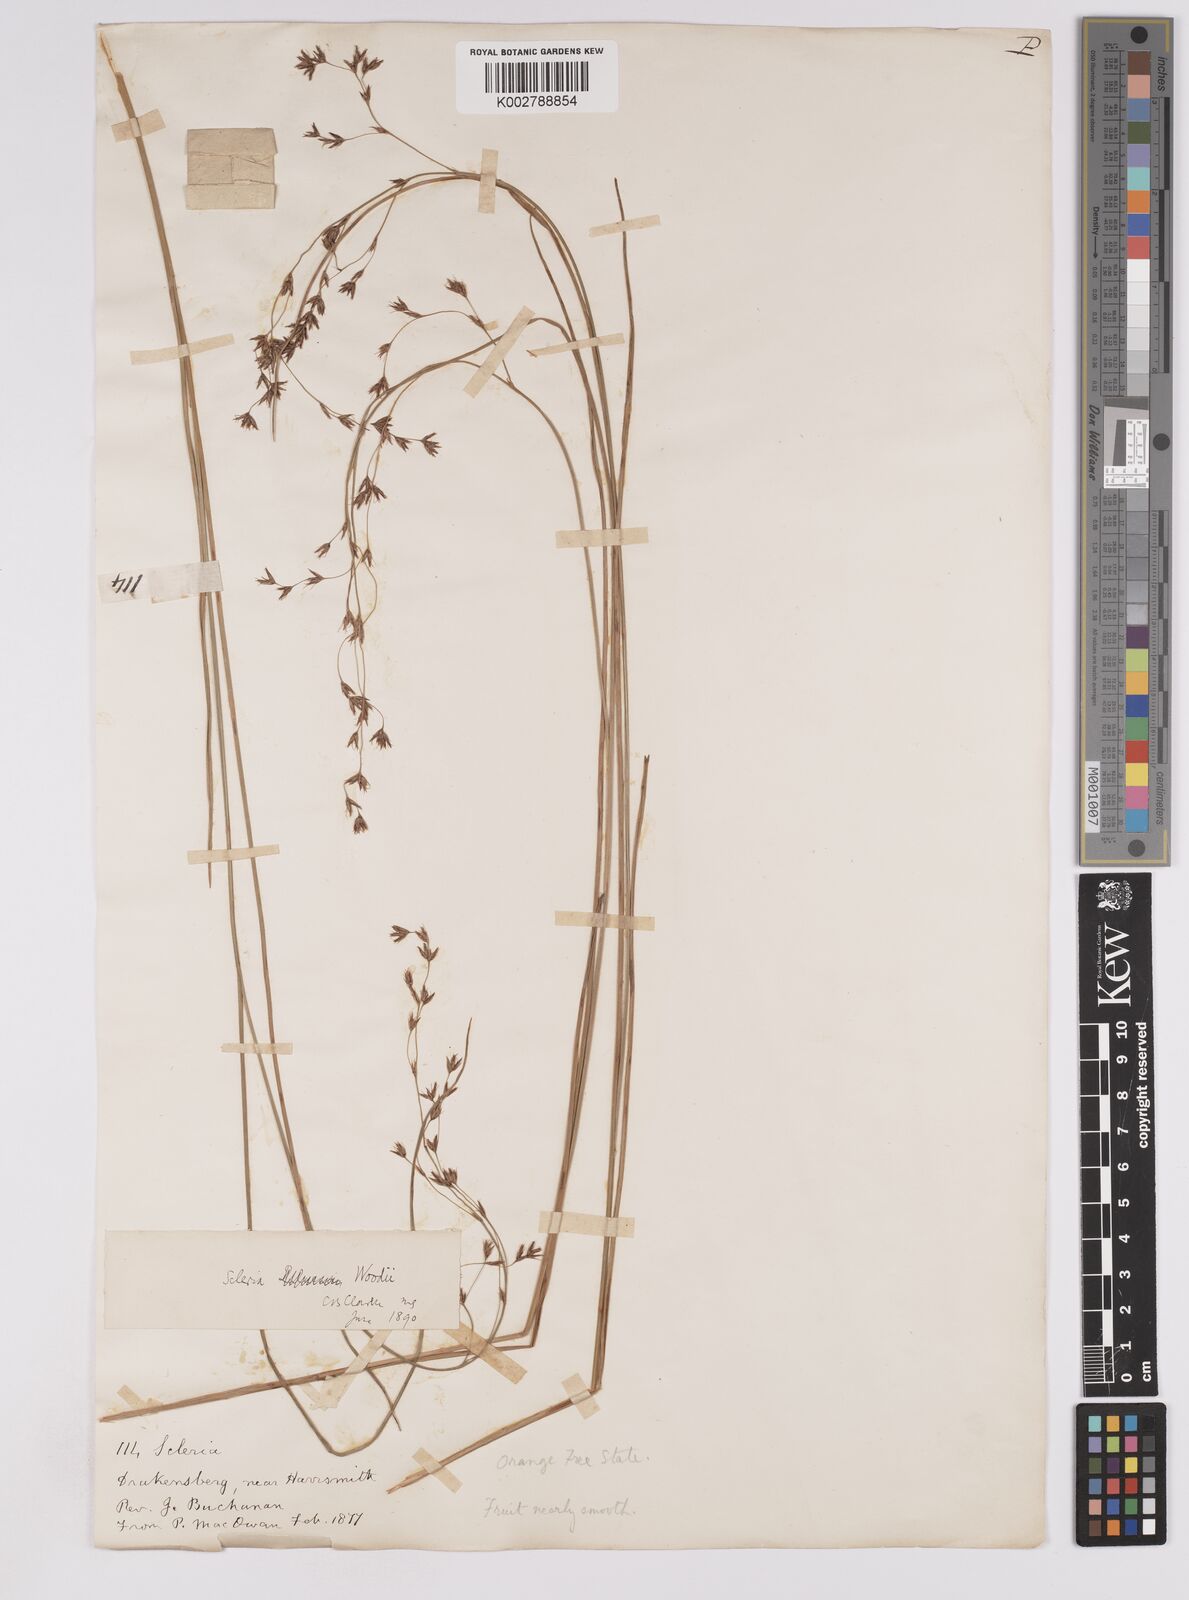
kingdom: Plantae
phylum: Tracheophyta
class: Liliopsida
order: Poales
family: Cyperaceae
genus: Scleria
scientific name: Scleria woodii
